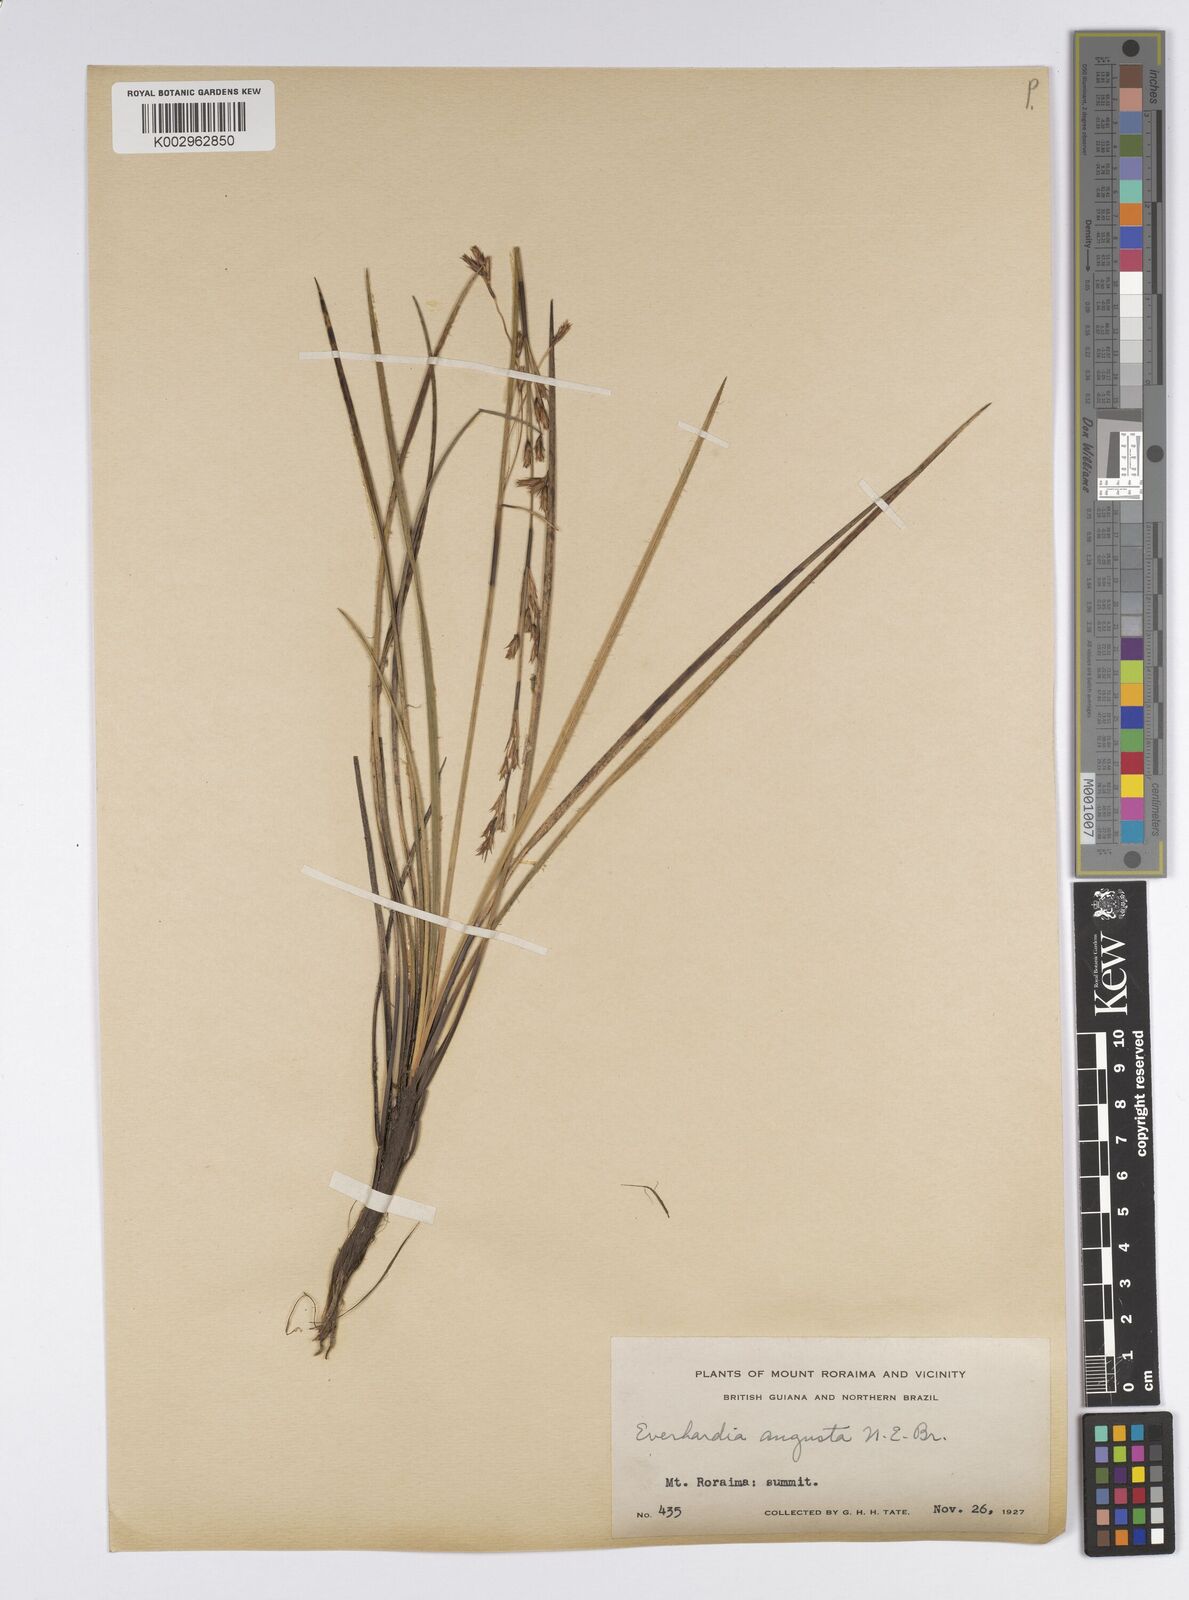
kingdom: Plantae
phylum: Tracheophyta
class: Liliopsida
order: Poales
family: Cyperaceae
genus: Cephalocarpus
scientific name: Cephalocarpus angustus
